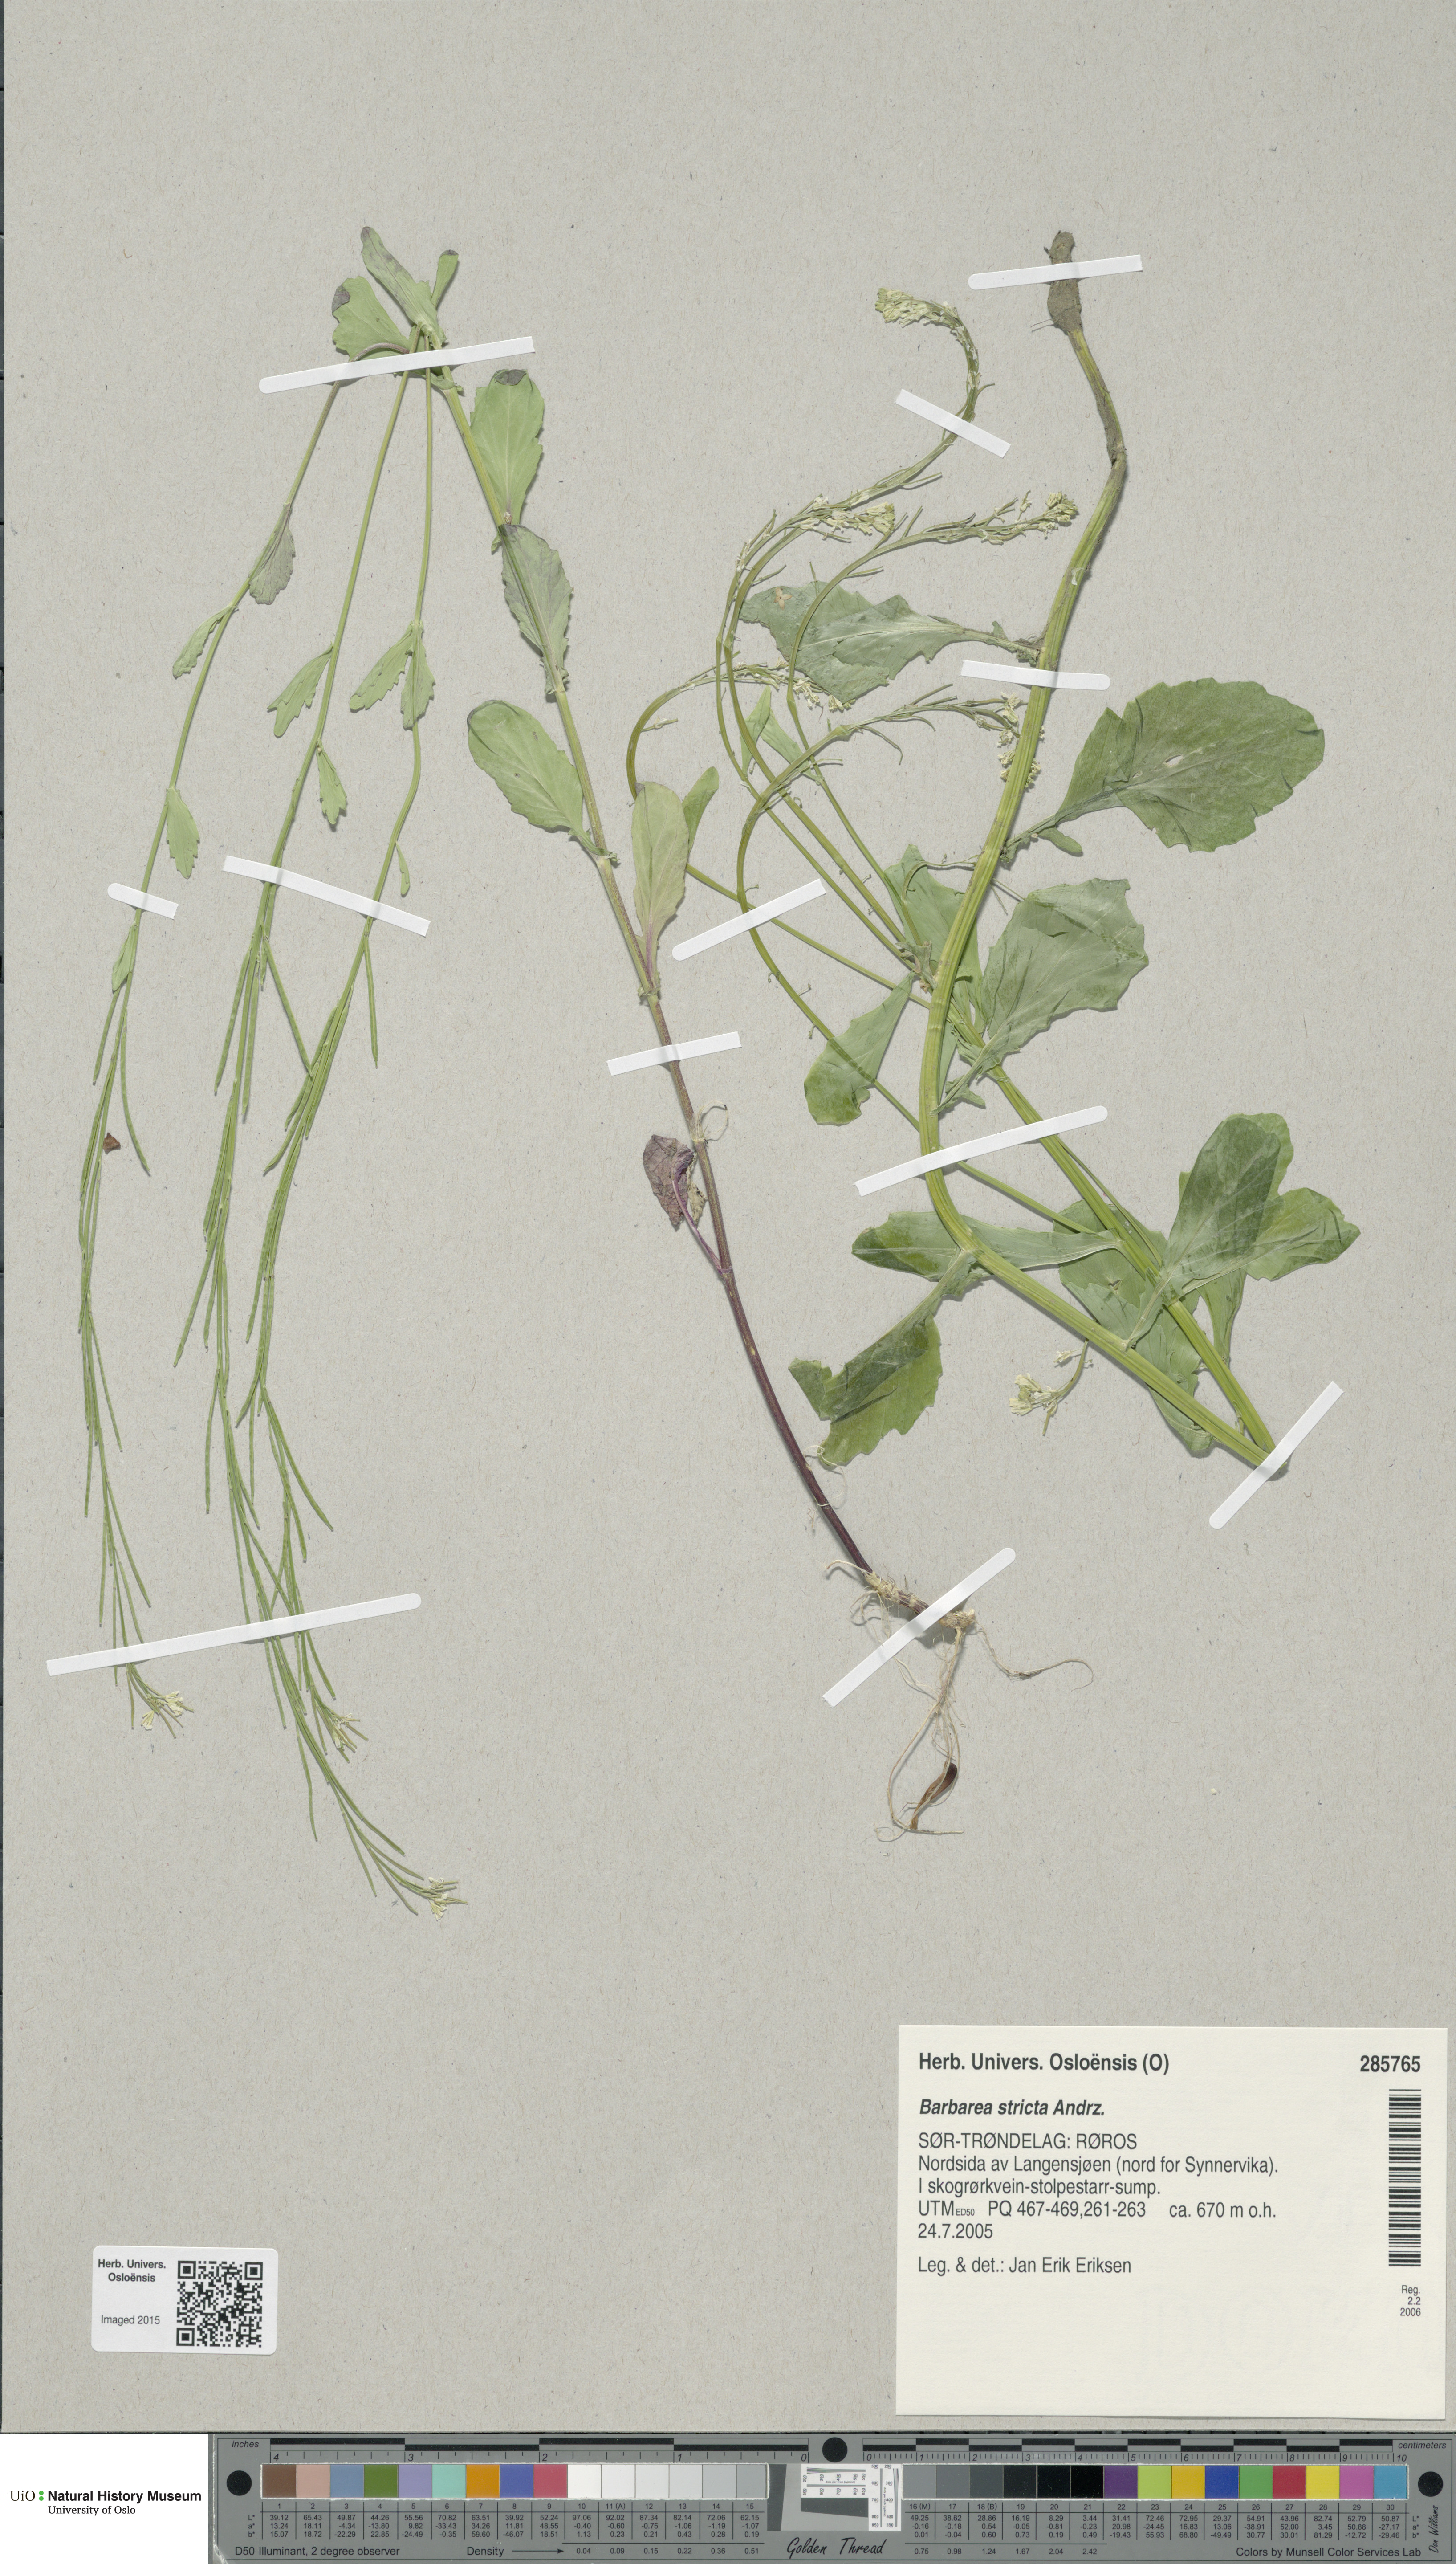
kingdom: Plantae
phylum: Tracheophyta
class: Magnoliopsida
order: Brassicales
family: Brassicaceae
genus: Barbarea
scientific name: Barbarea stricta
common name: Small-flowered winter-cress
